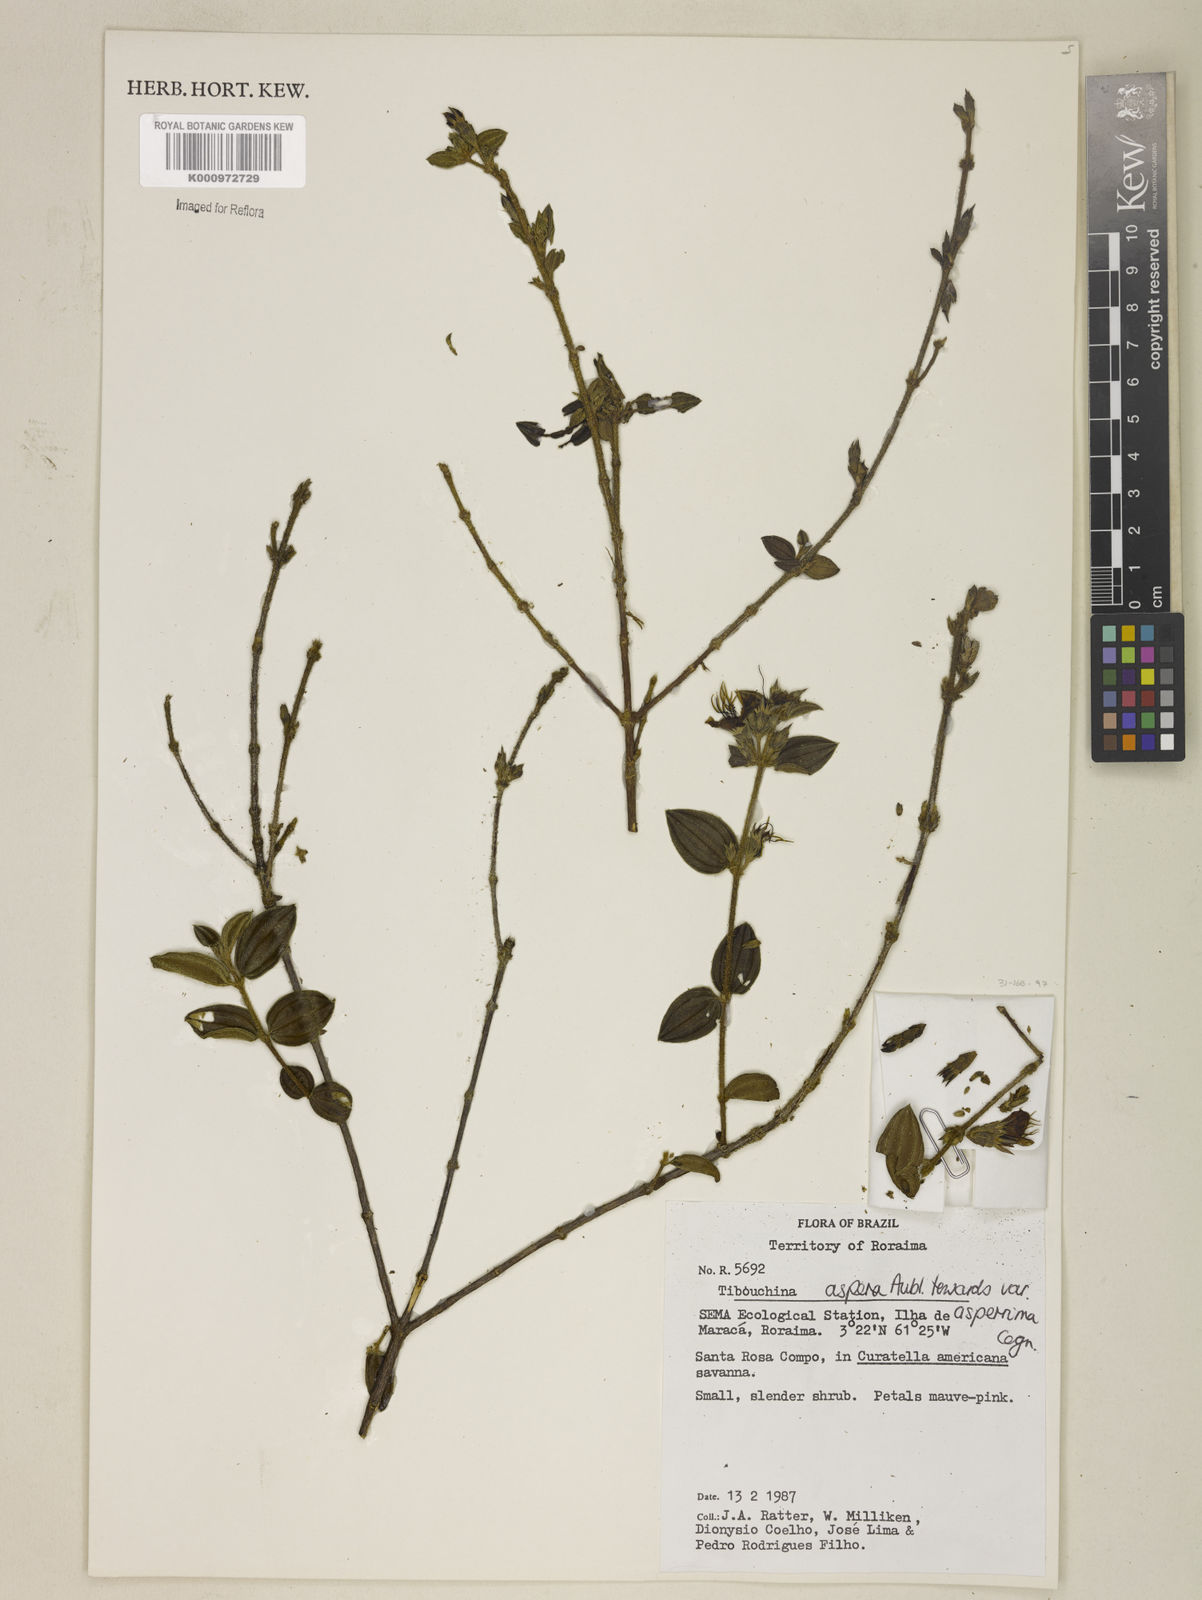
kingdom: Plantae
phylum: Tracheophyta
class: Magnoliopsida
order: Myrtales
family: Melastomataceae
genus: Tibouchina
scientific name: Tibouchina aspera
